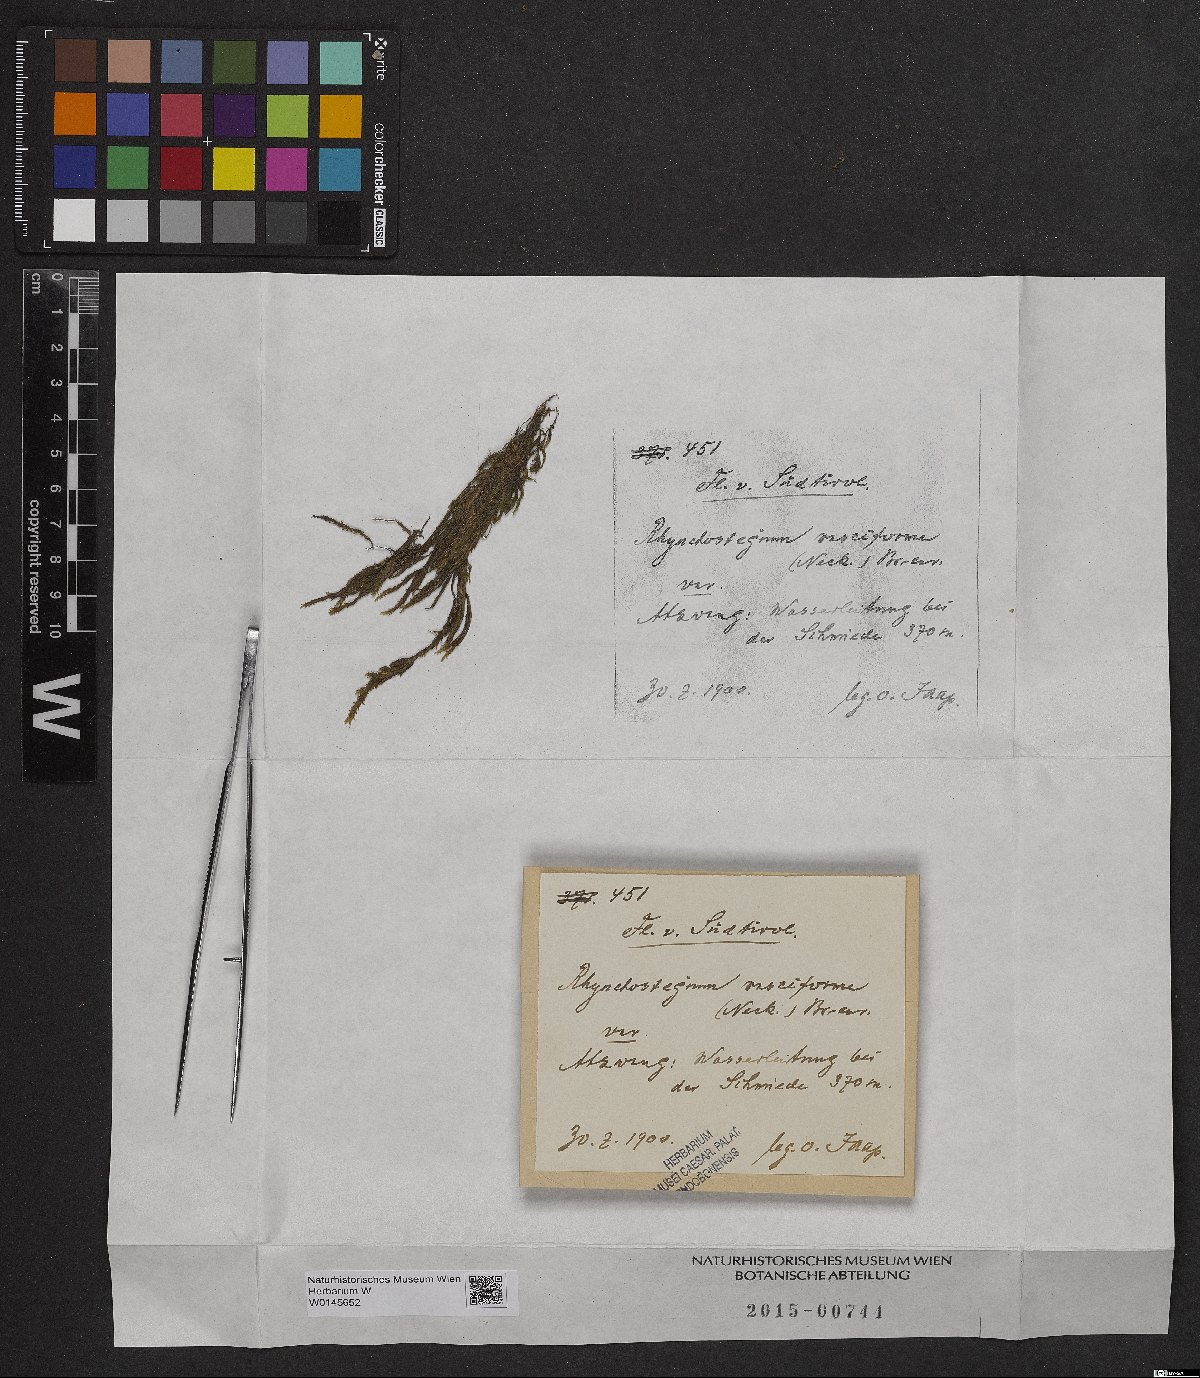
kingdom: Plantae
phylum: Bryophyta
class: Bryopsida
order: Hypnales
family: Brachytheciaceae
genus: Rhynchostegium
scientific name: Rhynchostegium riparioides
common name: Platyhypnidium moss
